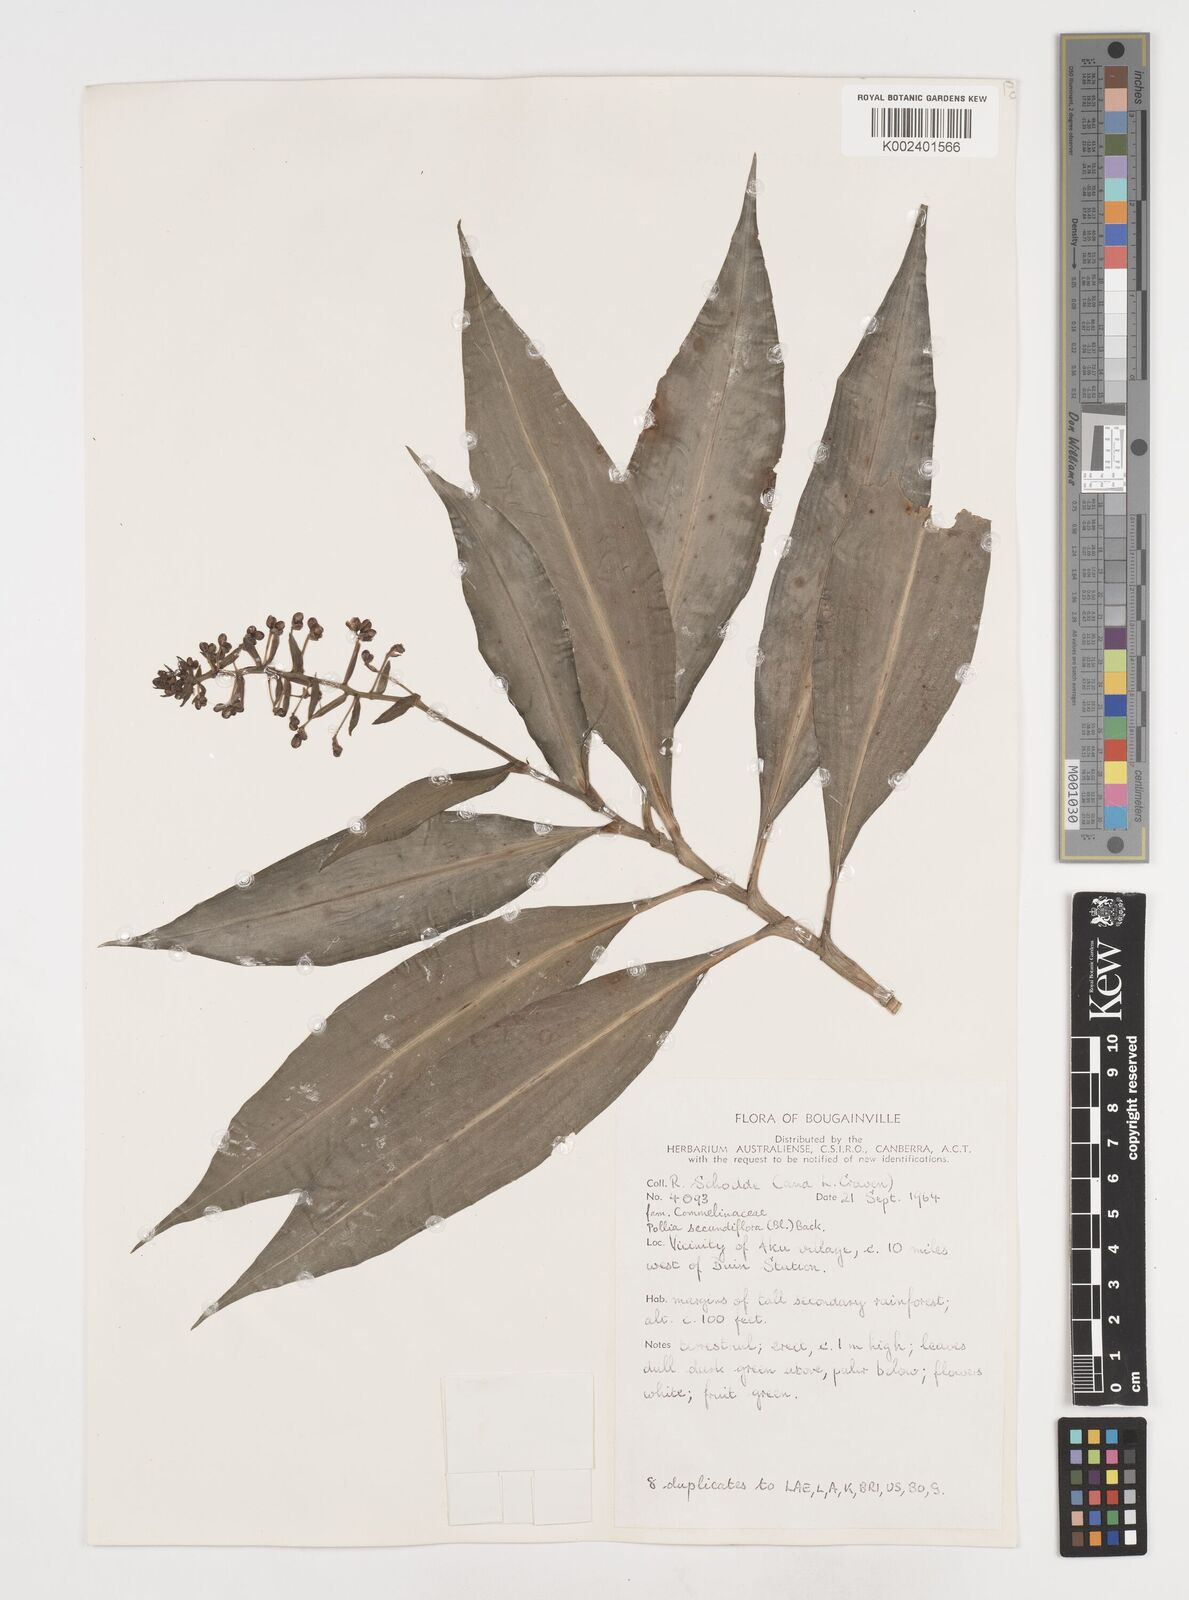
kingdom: Plantae
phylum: Tracheophyta
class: Liliopsida
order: Commelinales
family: Commelinaceae
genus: Pollia
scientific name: Pollia secundiflora
